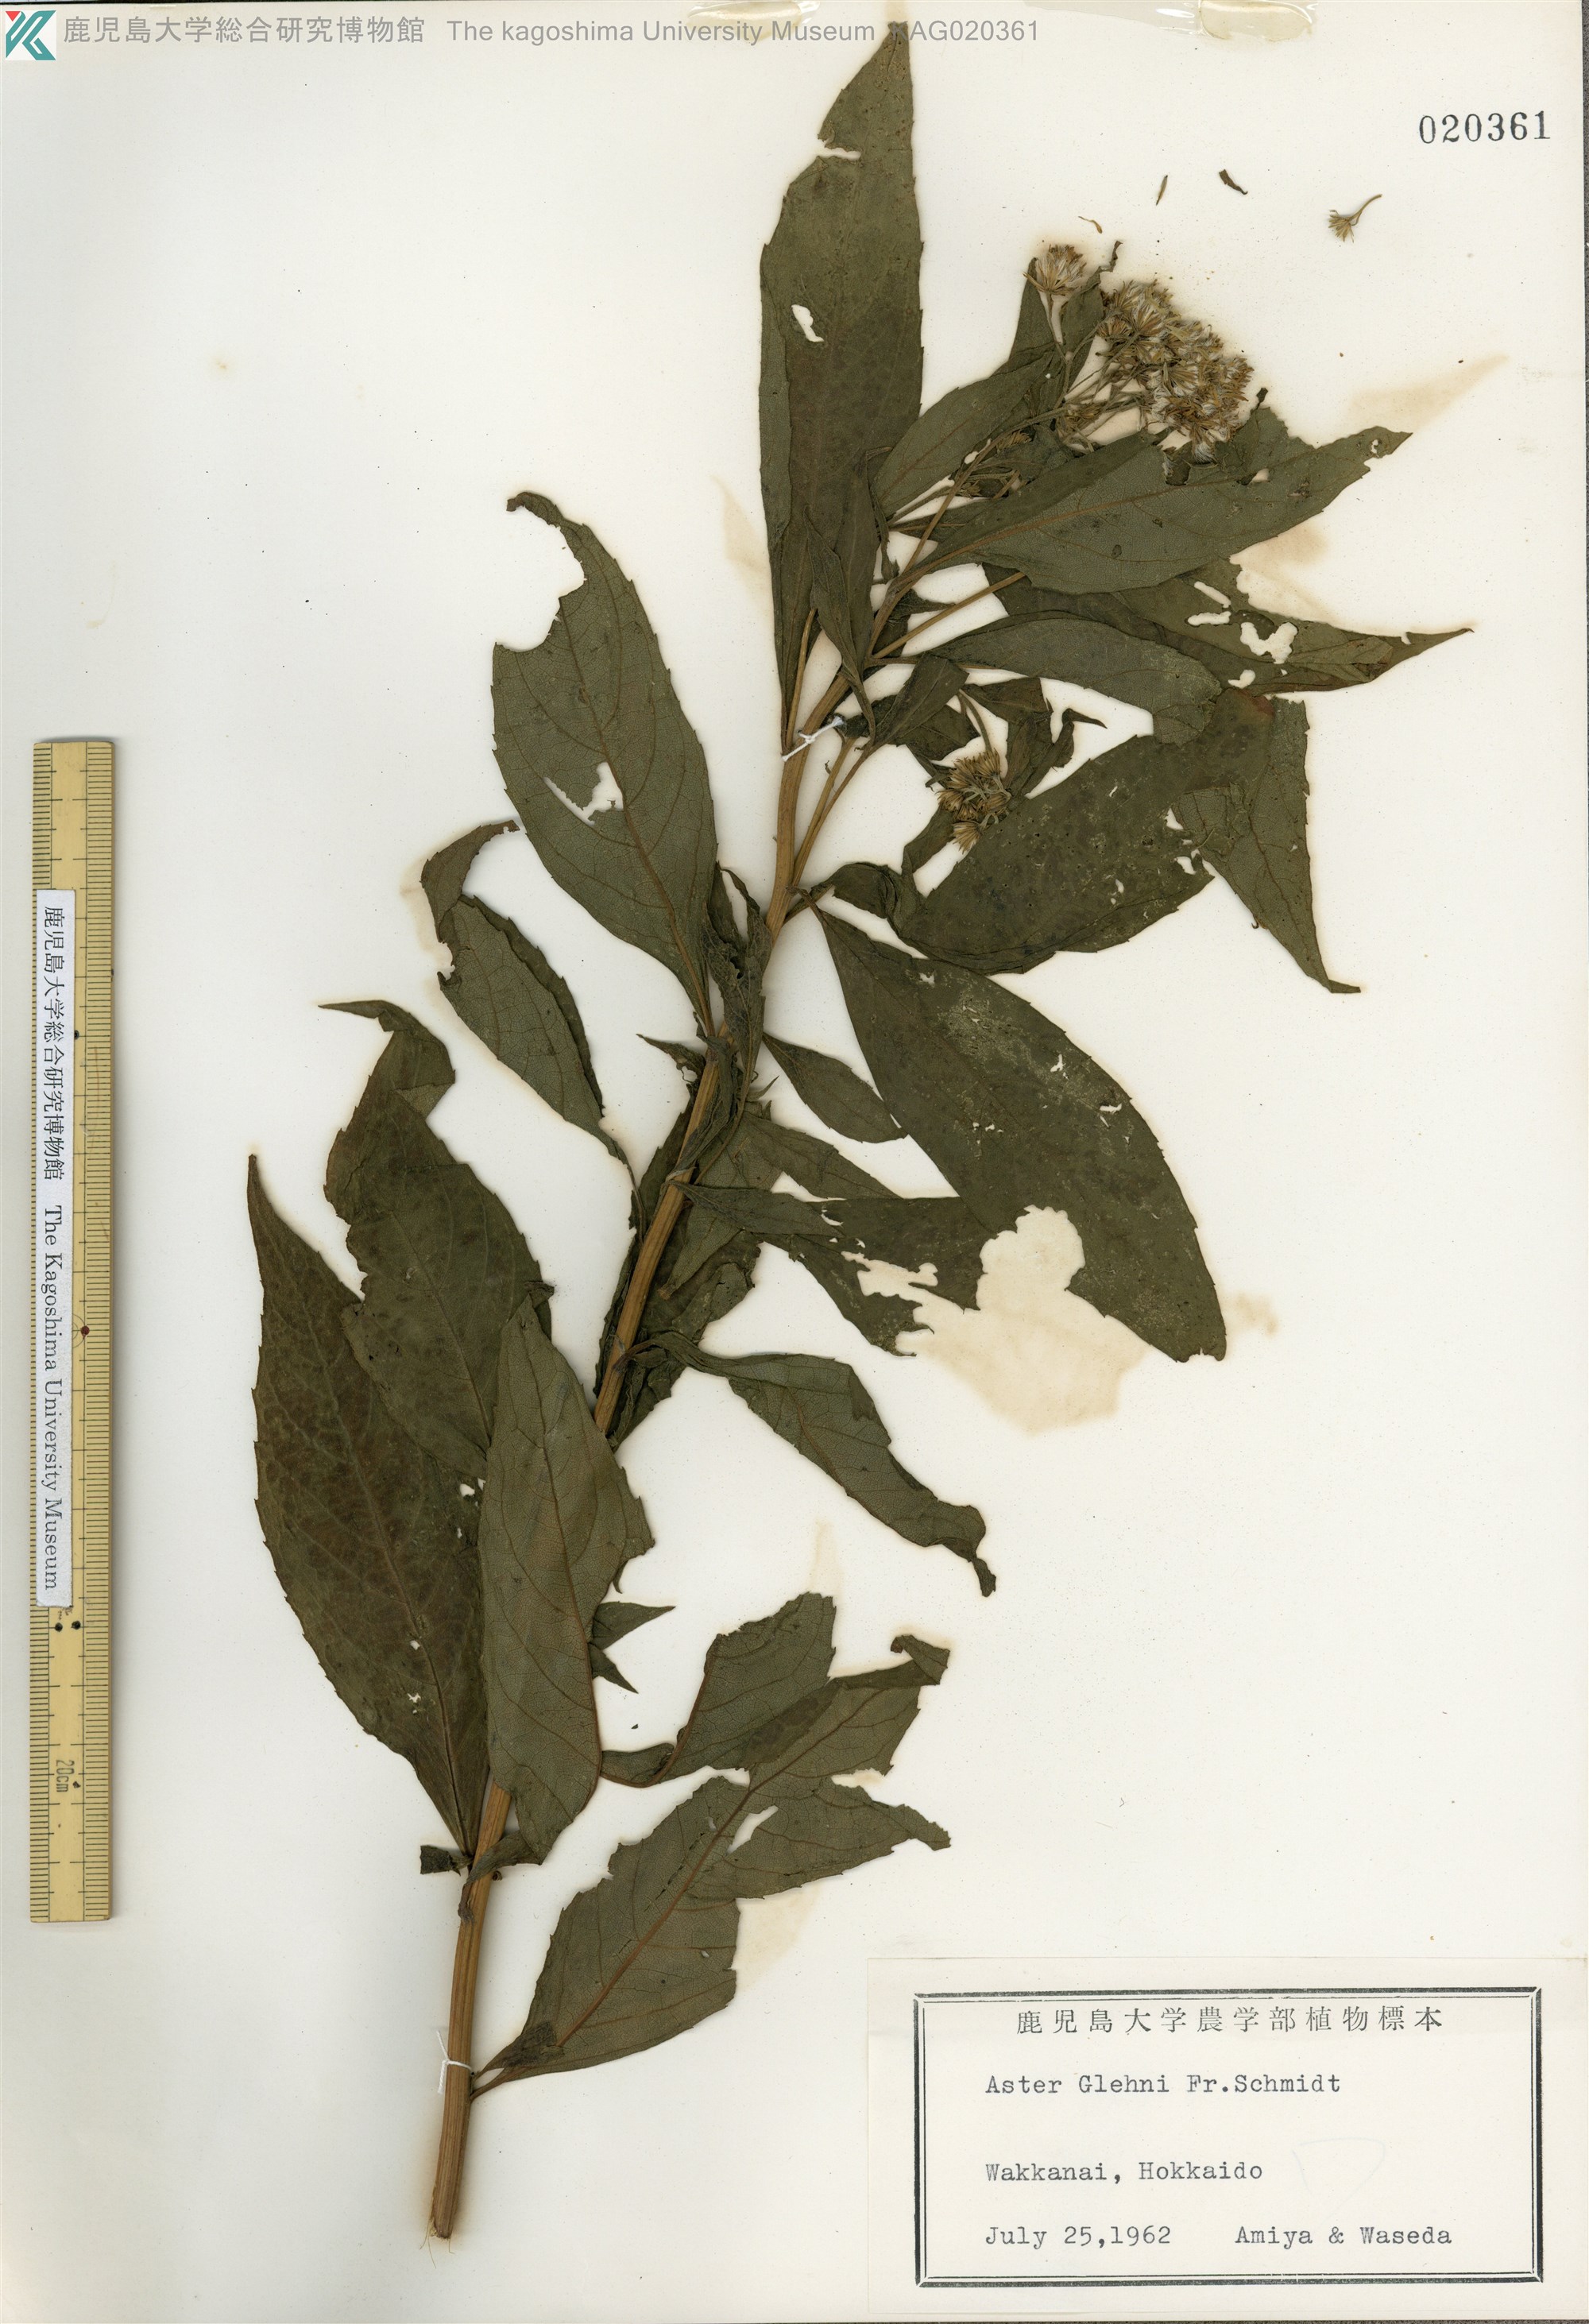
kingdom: Plantae
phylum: Tracheophyta
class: Magnoliopsida
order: Asterales
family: Asteraceae
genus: Kitamuria
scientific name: Kitamuria glehnii
